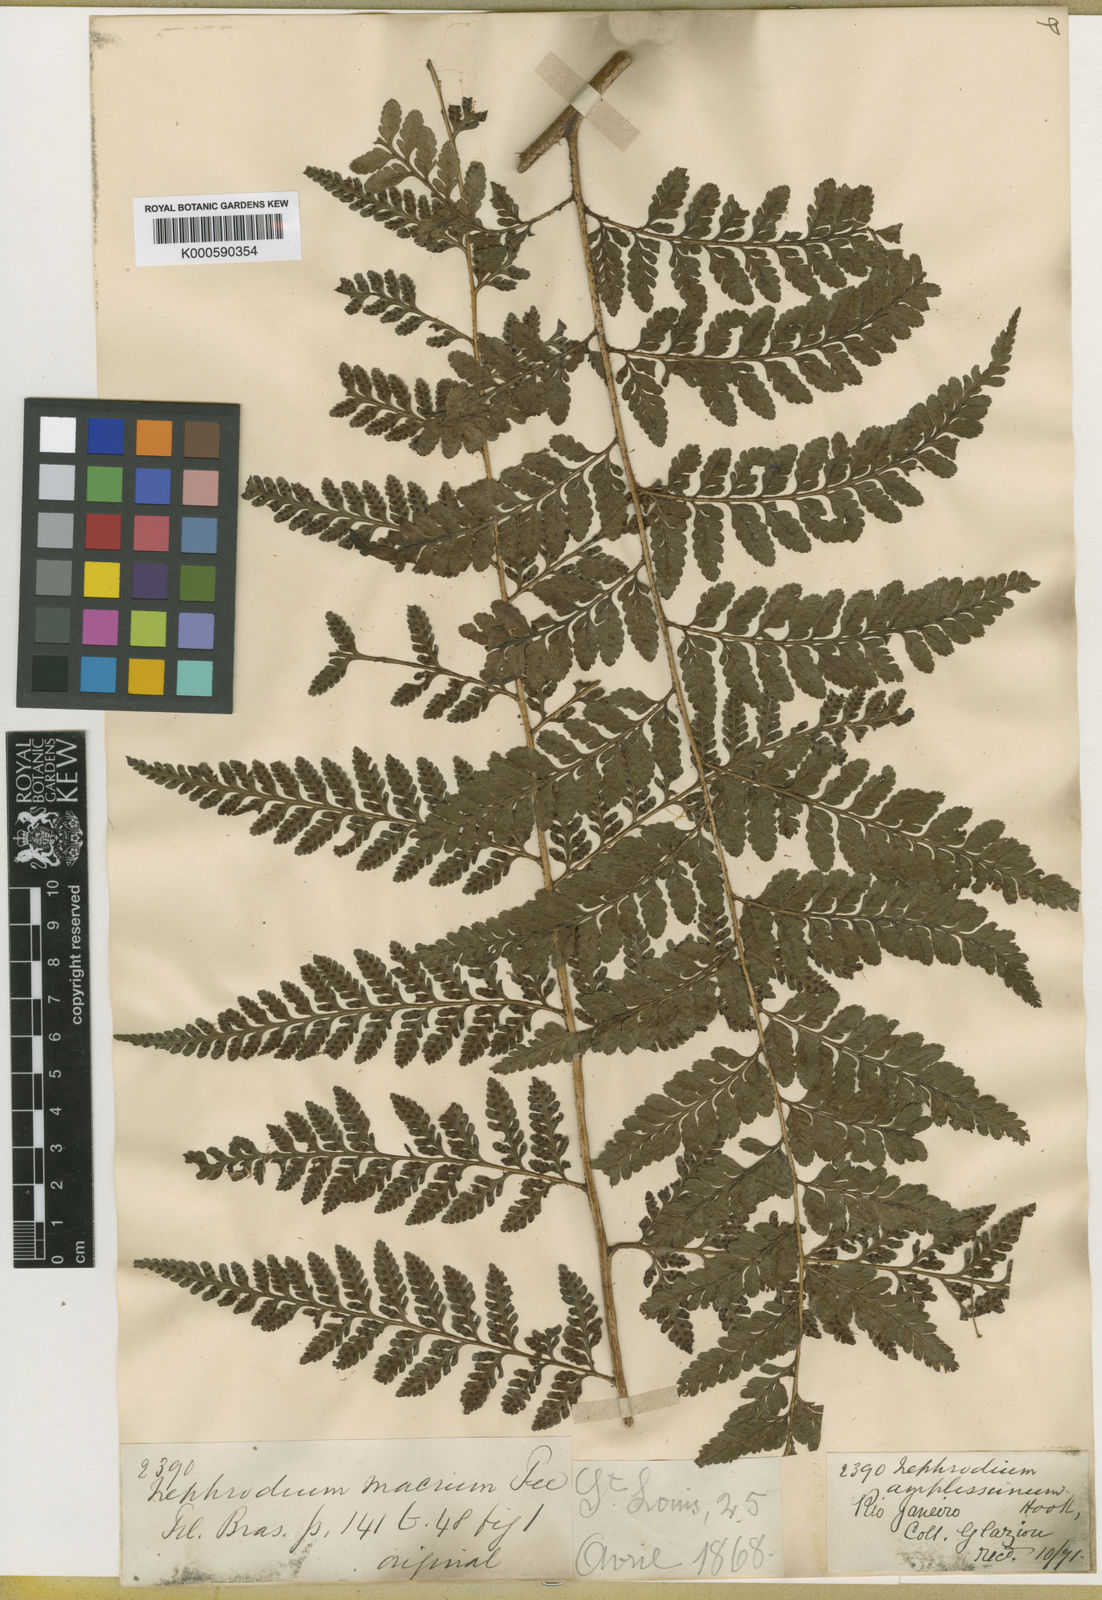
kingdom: Plantae
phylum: Tracheophyta
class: Polypodiopsida
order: Polypodiales
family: Dryopteridaceae
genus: Lastreopsis
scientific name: Lastreopsis amplissima
